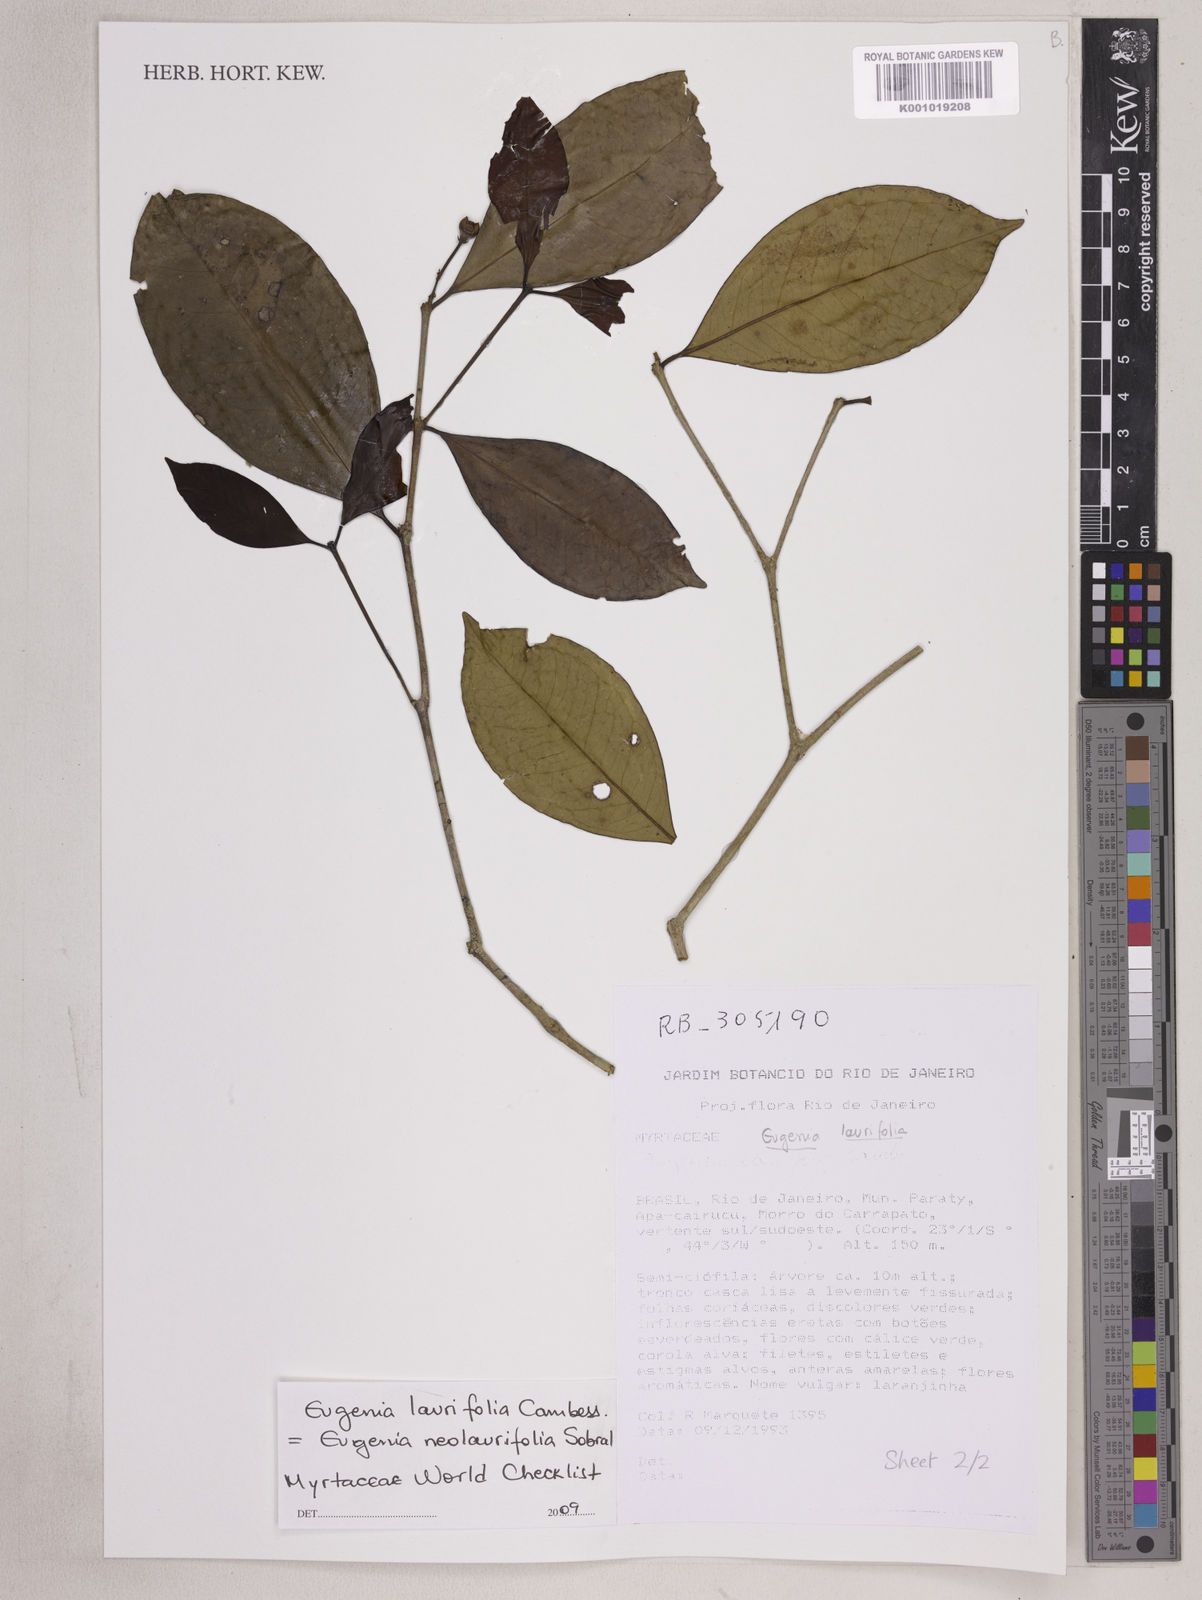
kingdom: Plantae
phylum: Tracheophyta
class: Magnoliopsida
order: Myrtales
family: Myrtaceae
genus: Eugenia
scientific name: Eugenia neolaurifolia
